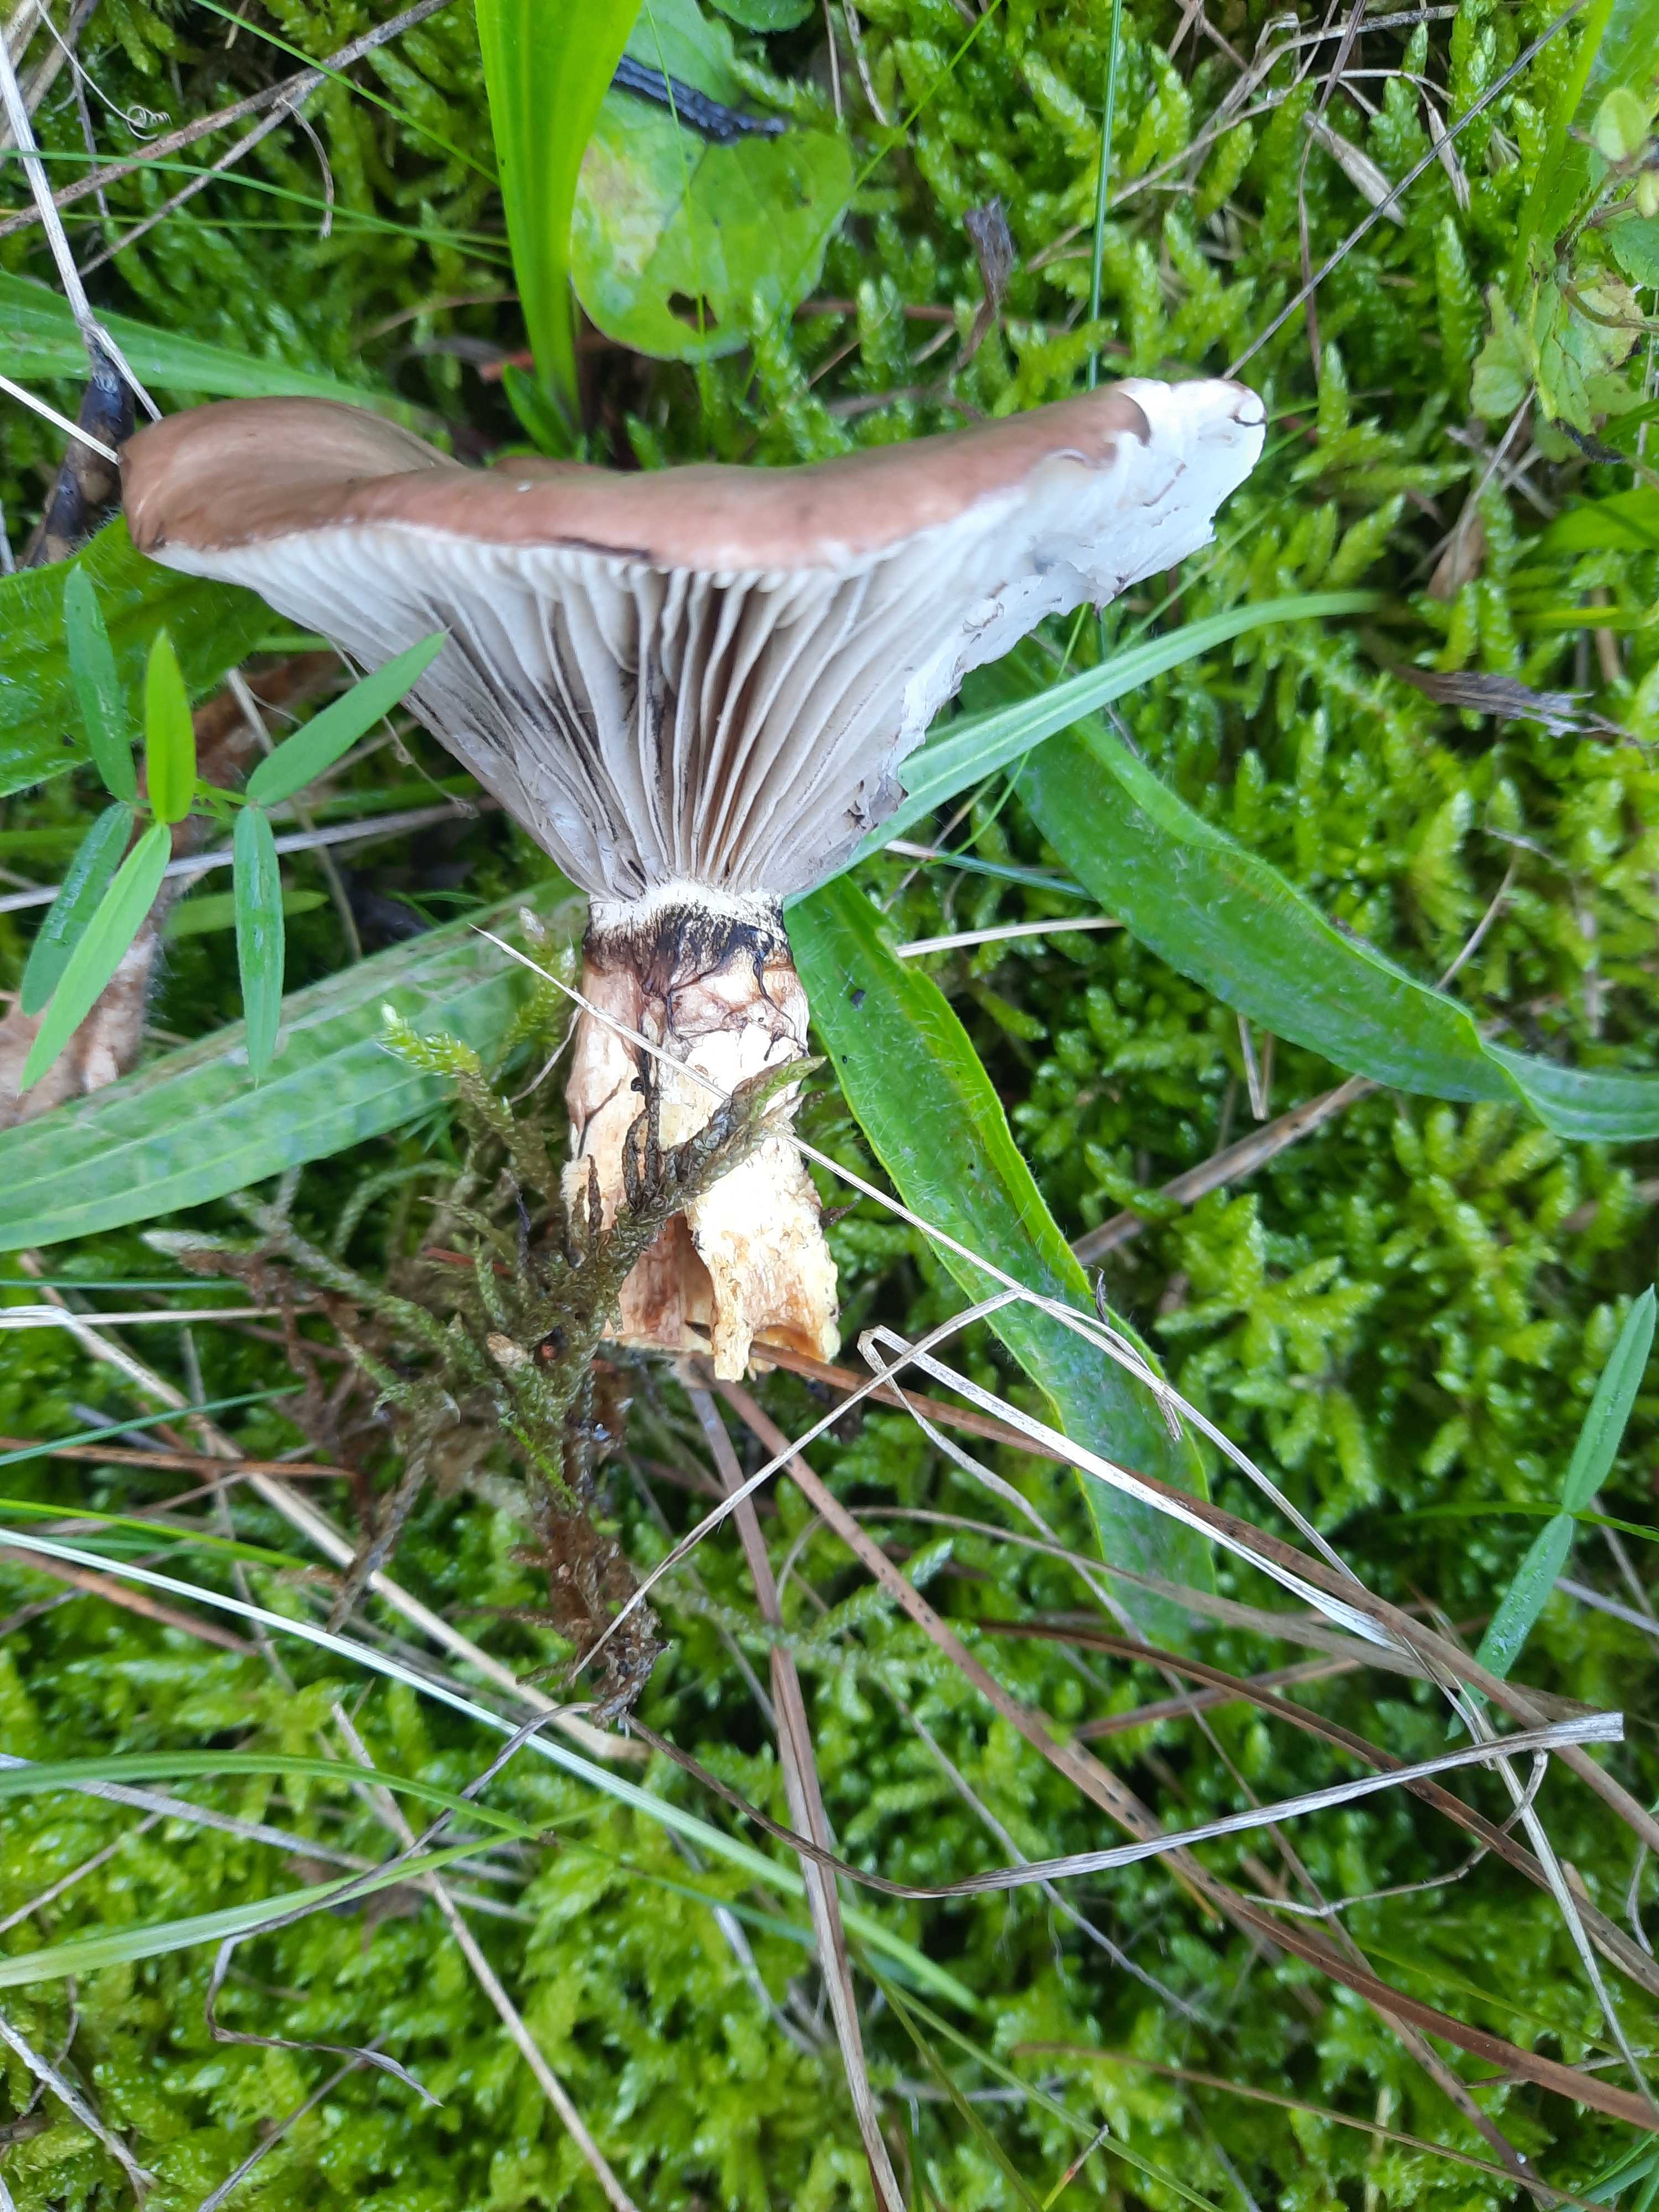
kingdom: Fungi
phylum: Basidiomycota
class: Agaricomycetes
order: Boletales
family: Gomphidiaceae
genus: Gomphidius
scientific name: Gomphidius glutinosus
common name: grå slimslør
